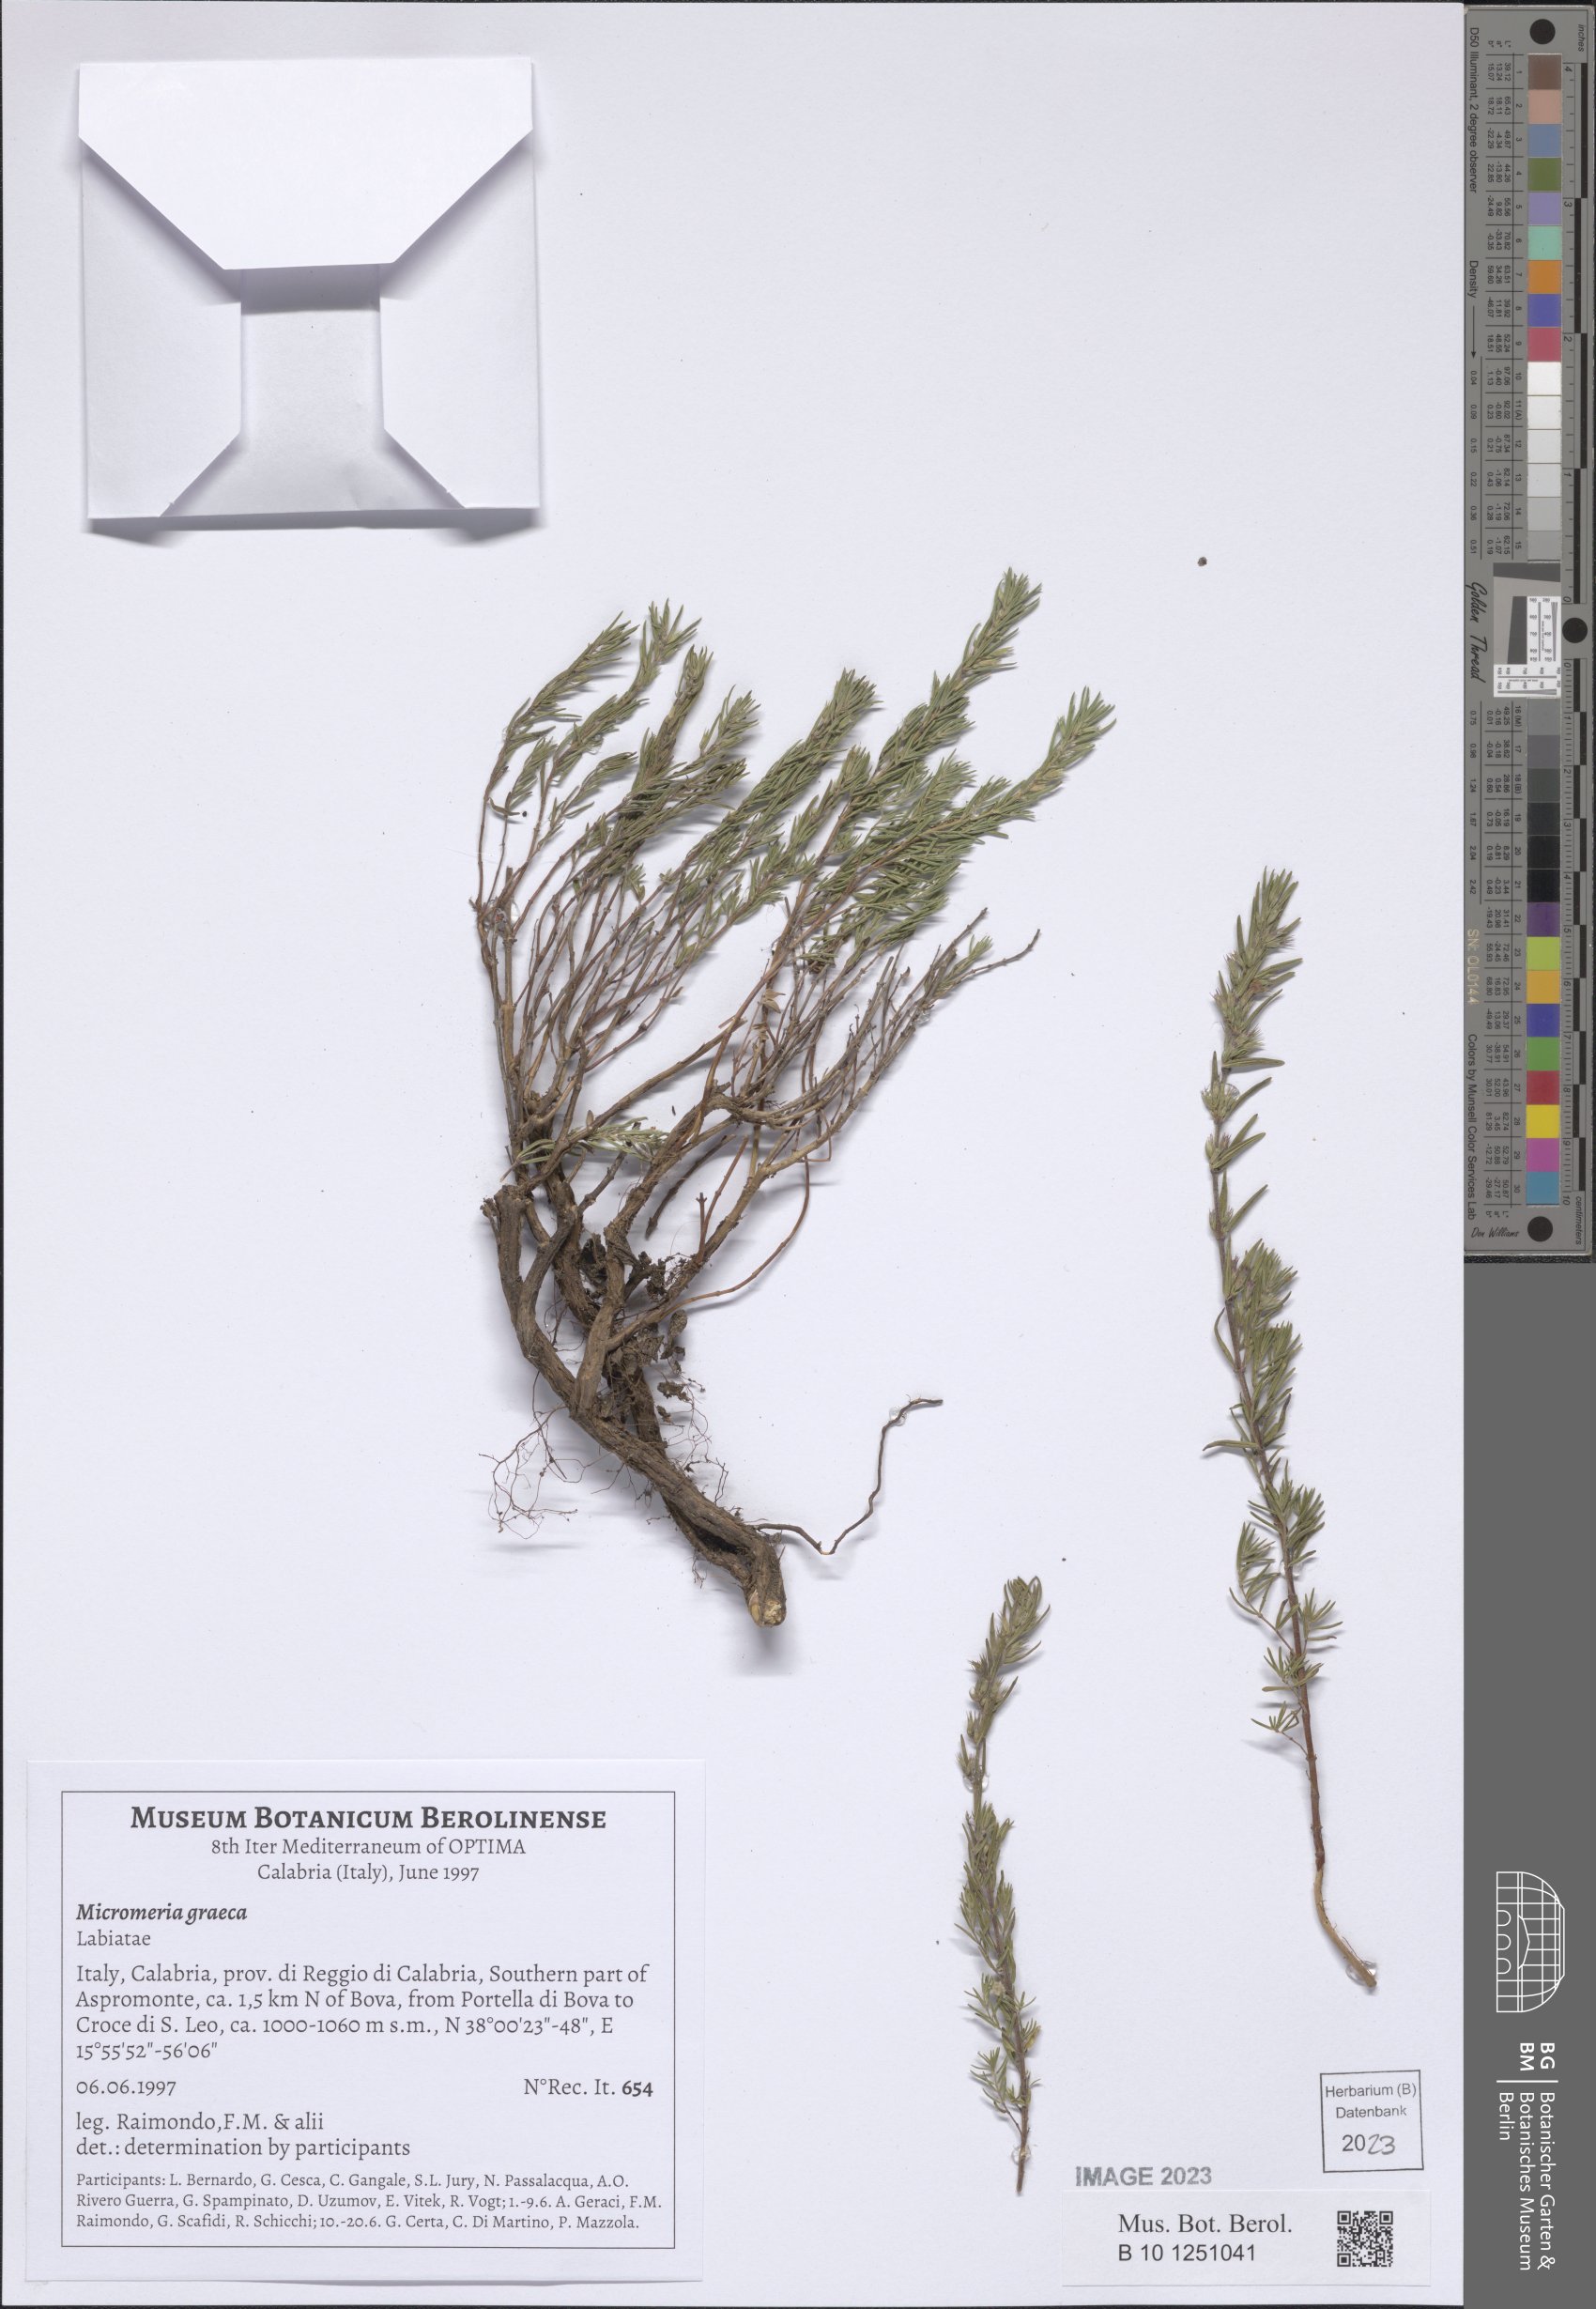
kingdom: Plantae
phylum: Tracheophyta
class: Magnoliopsida
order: Lamiales
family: Lamiaceae
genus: Micromeria
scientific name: Micromeria graeca
